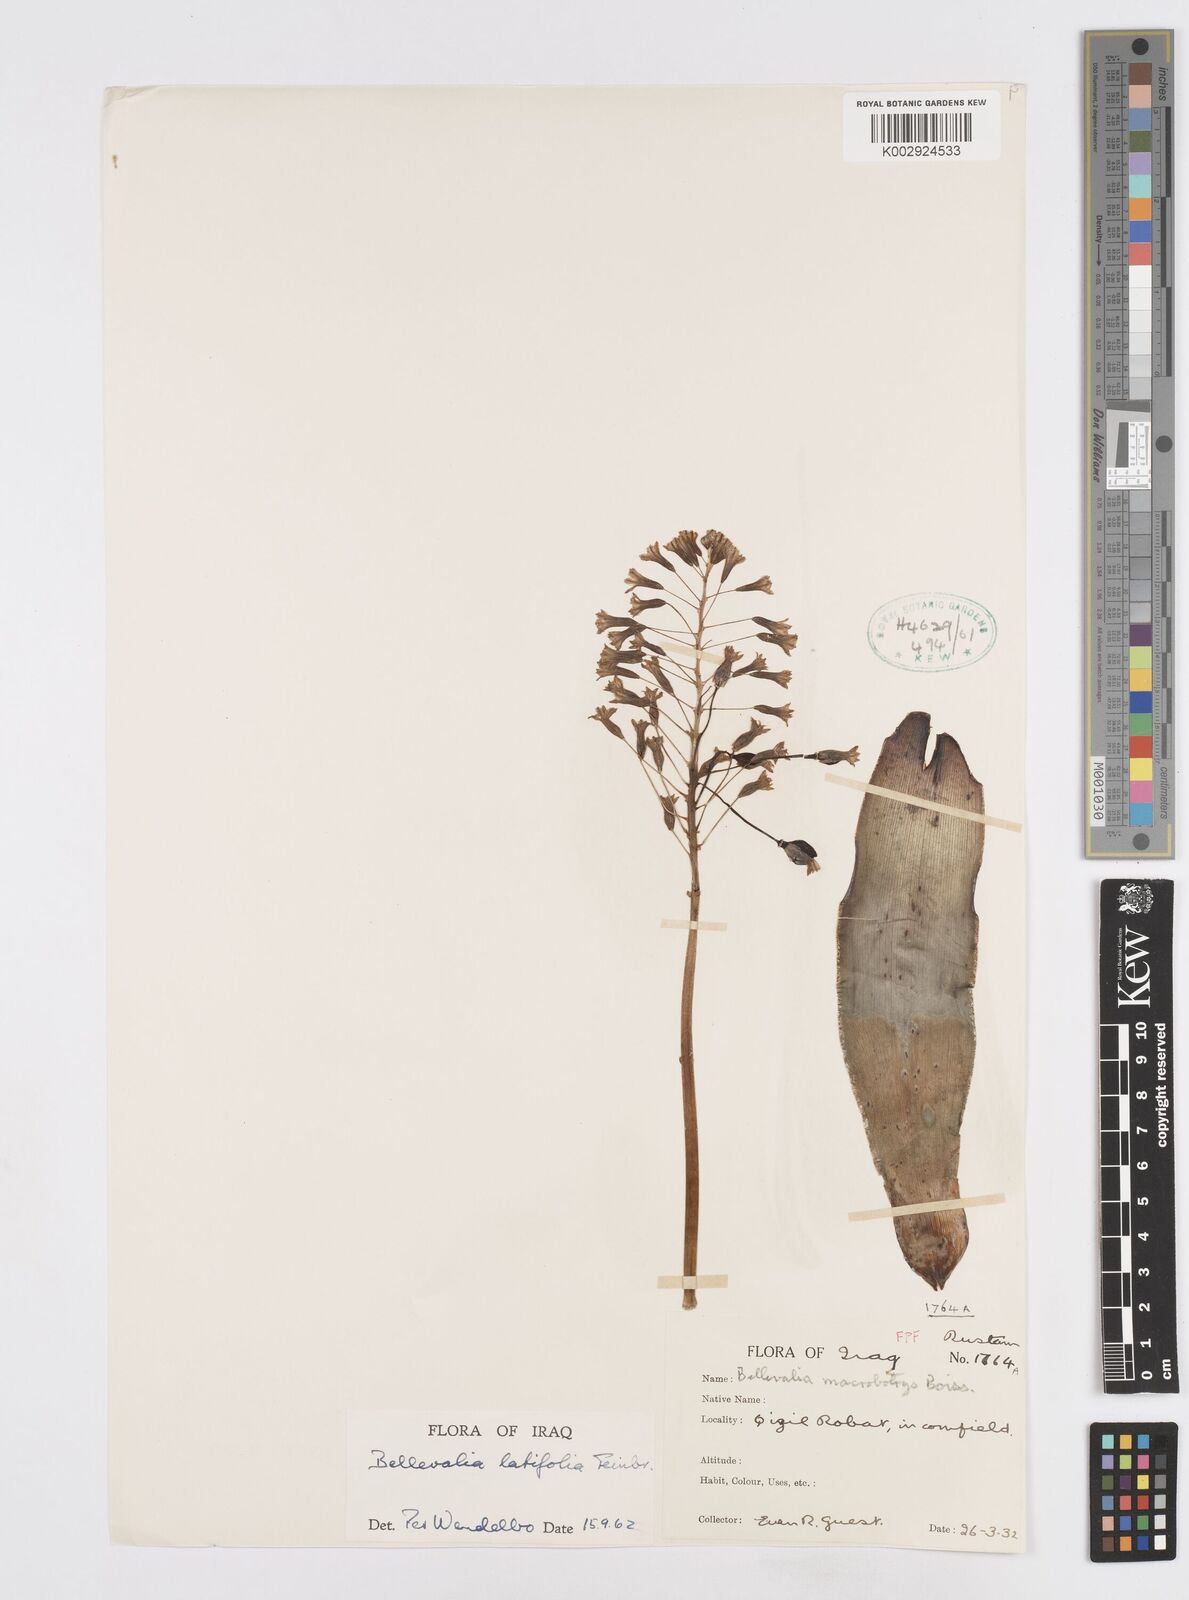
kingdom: Plantae
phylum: Tracheophyta
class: Liliopsida
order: Asparagales
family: Asparagaceae
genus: Bellevalia
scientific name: Bellevalia olivieri
